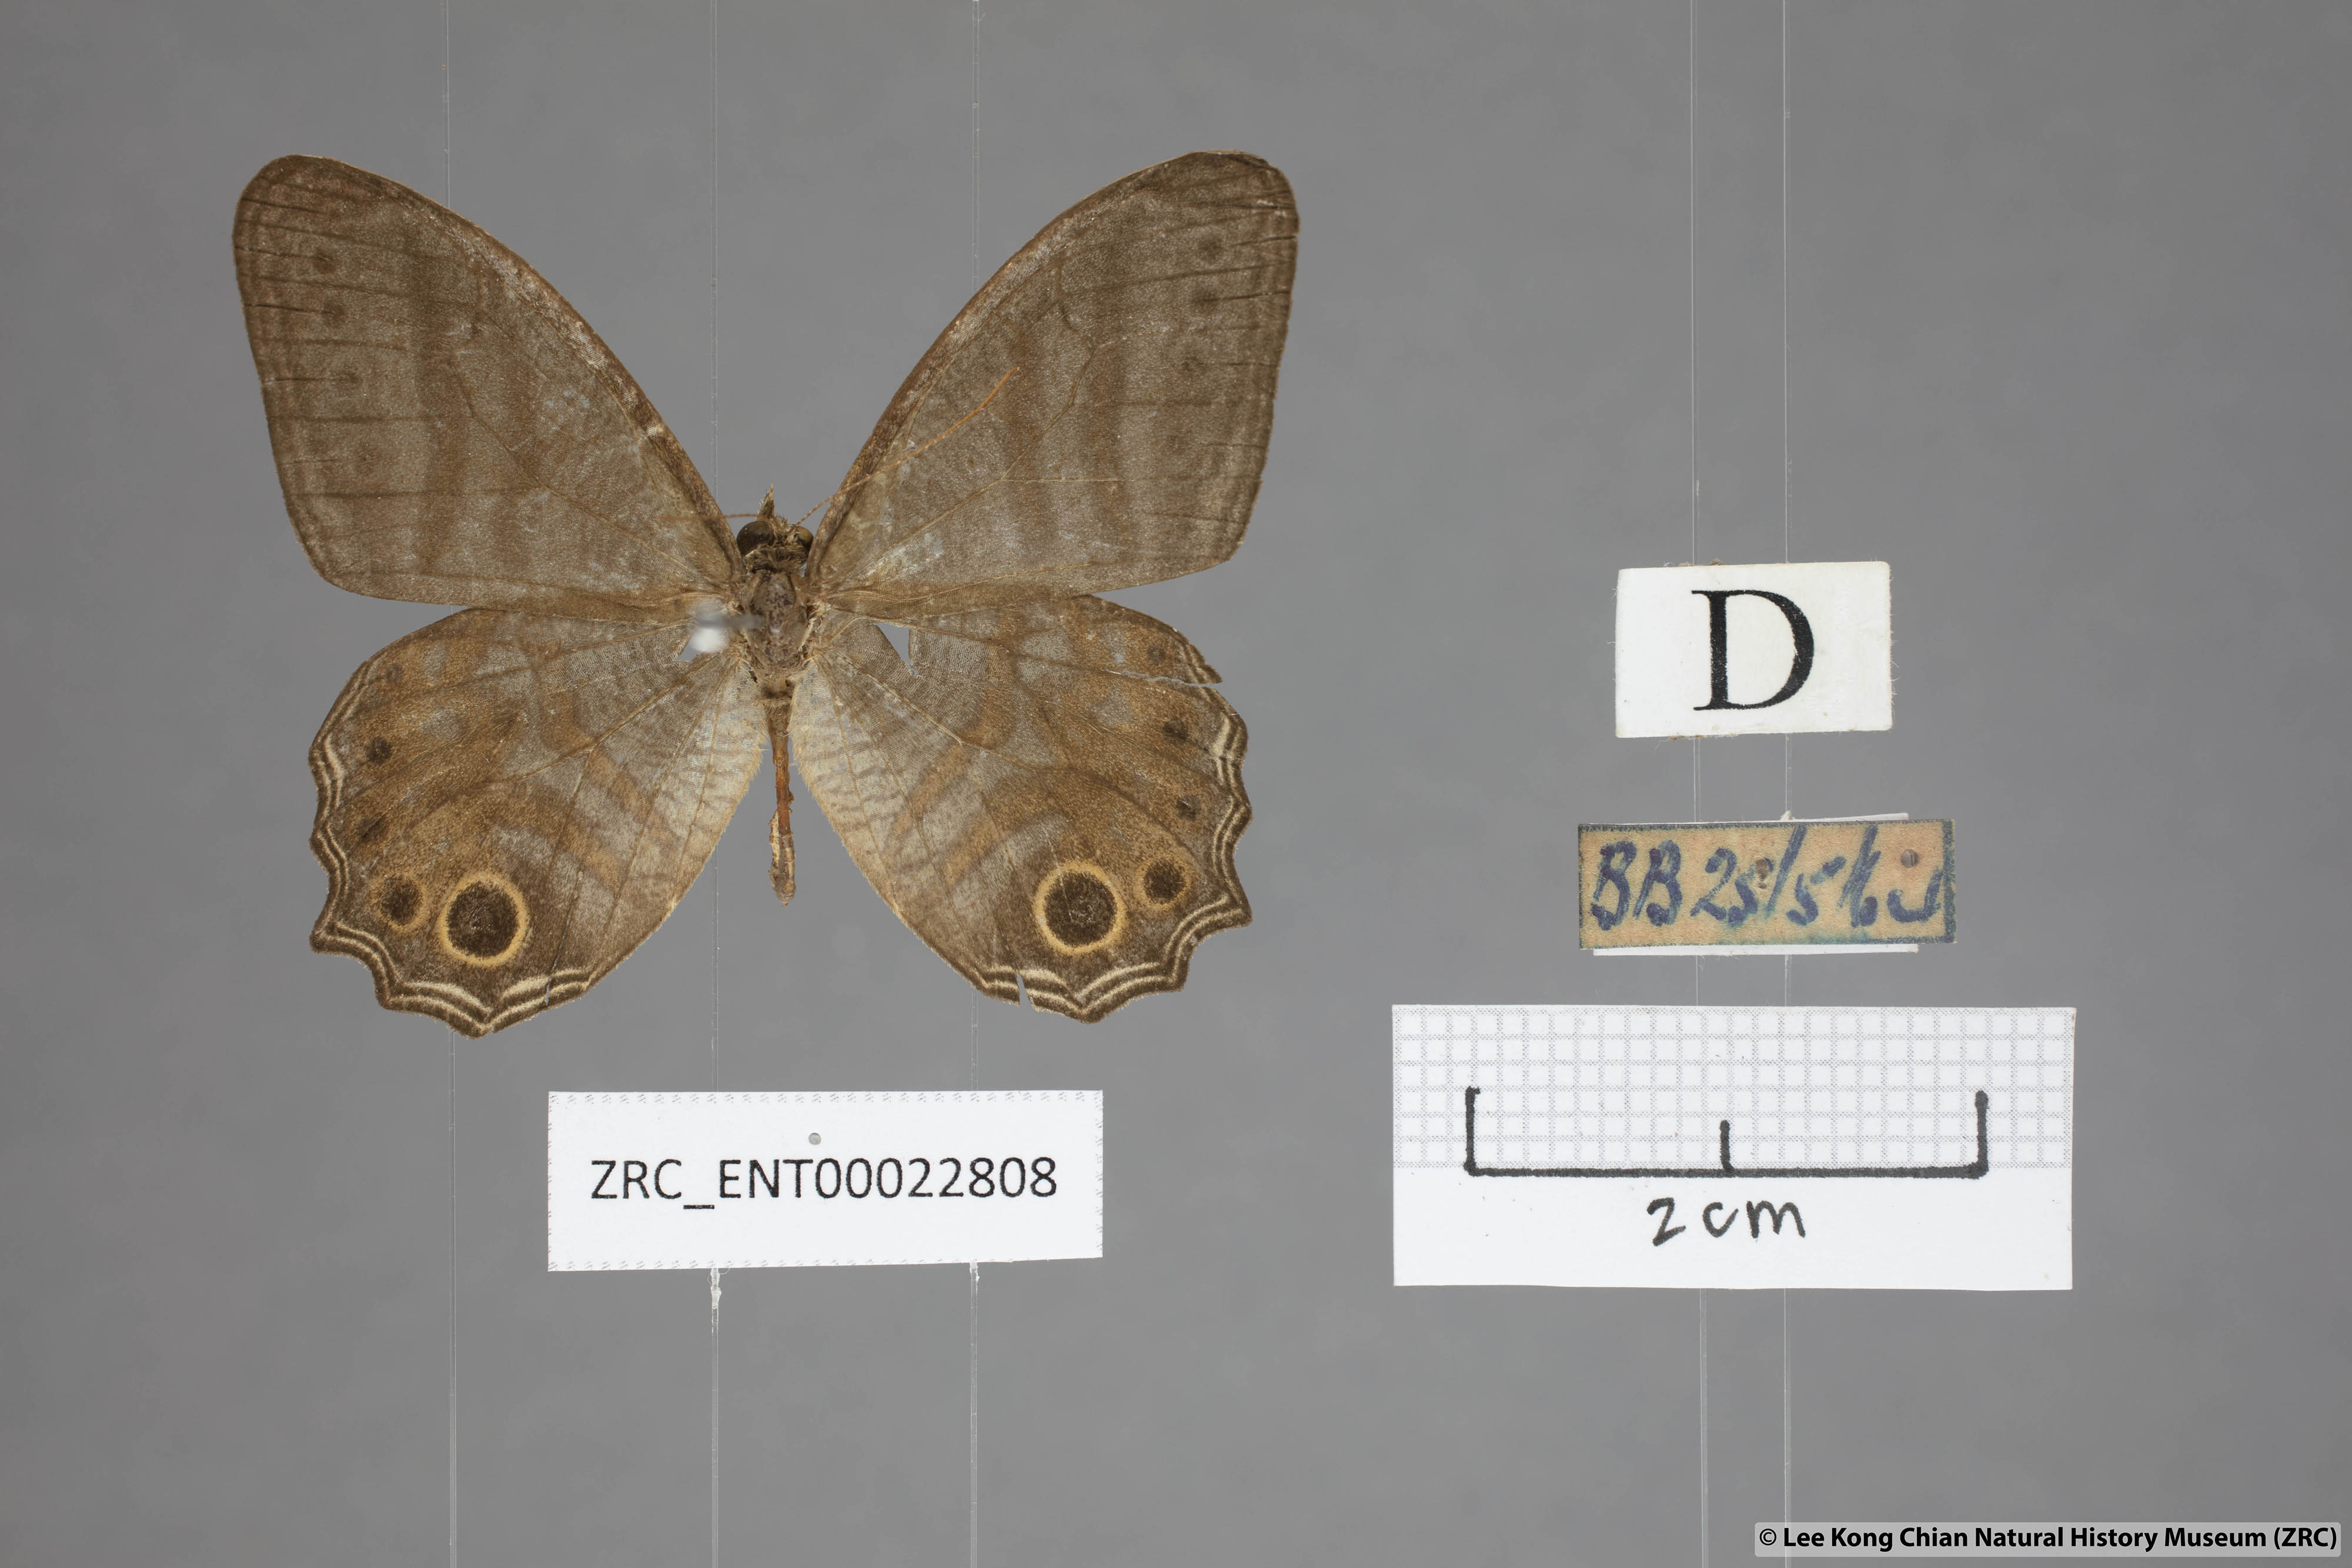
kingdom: Animalia
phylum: Arthropoda
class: Insecta
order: Lepidoptera
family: Nymphalidae
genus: Erites
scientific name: Erites elegans
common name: Elegent cyclops
